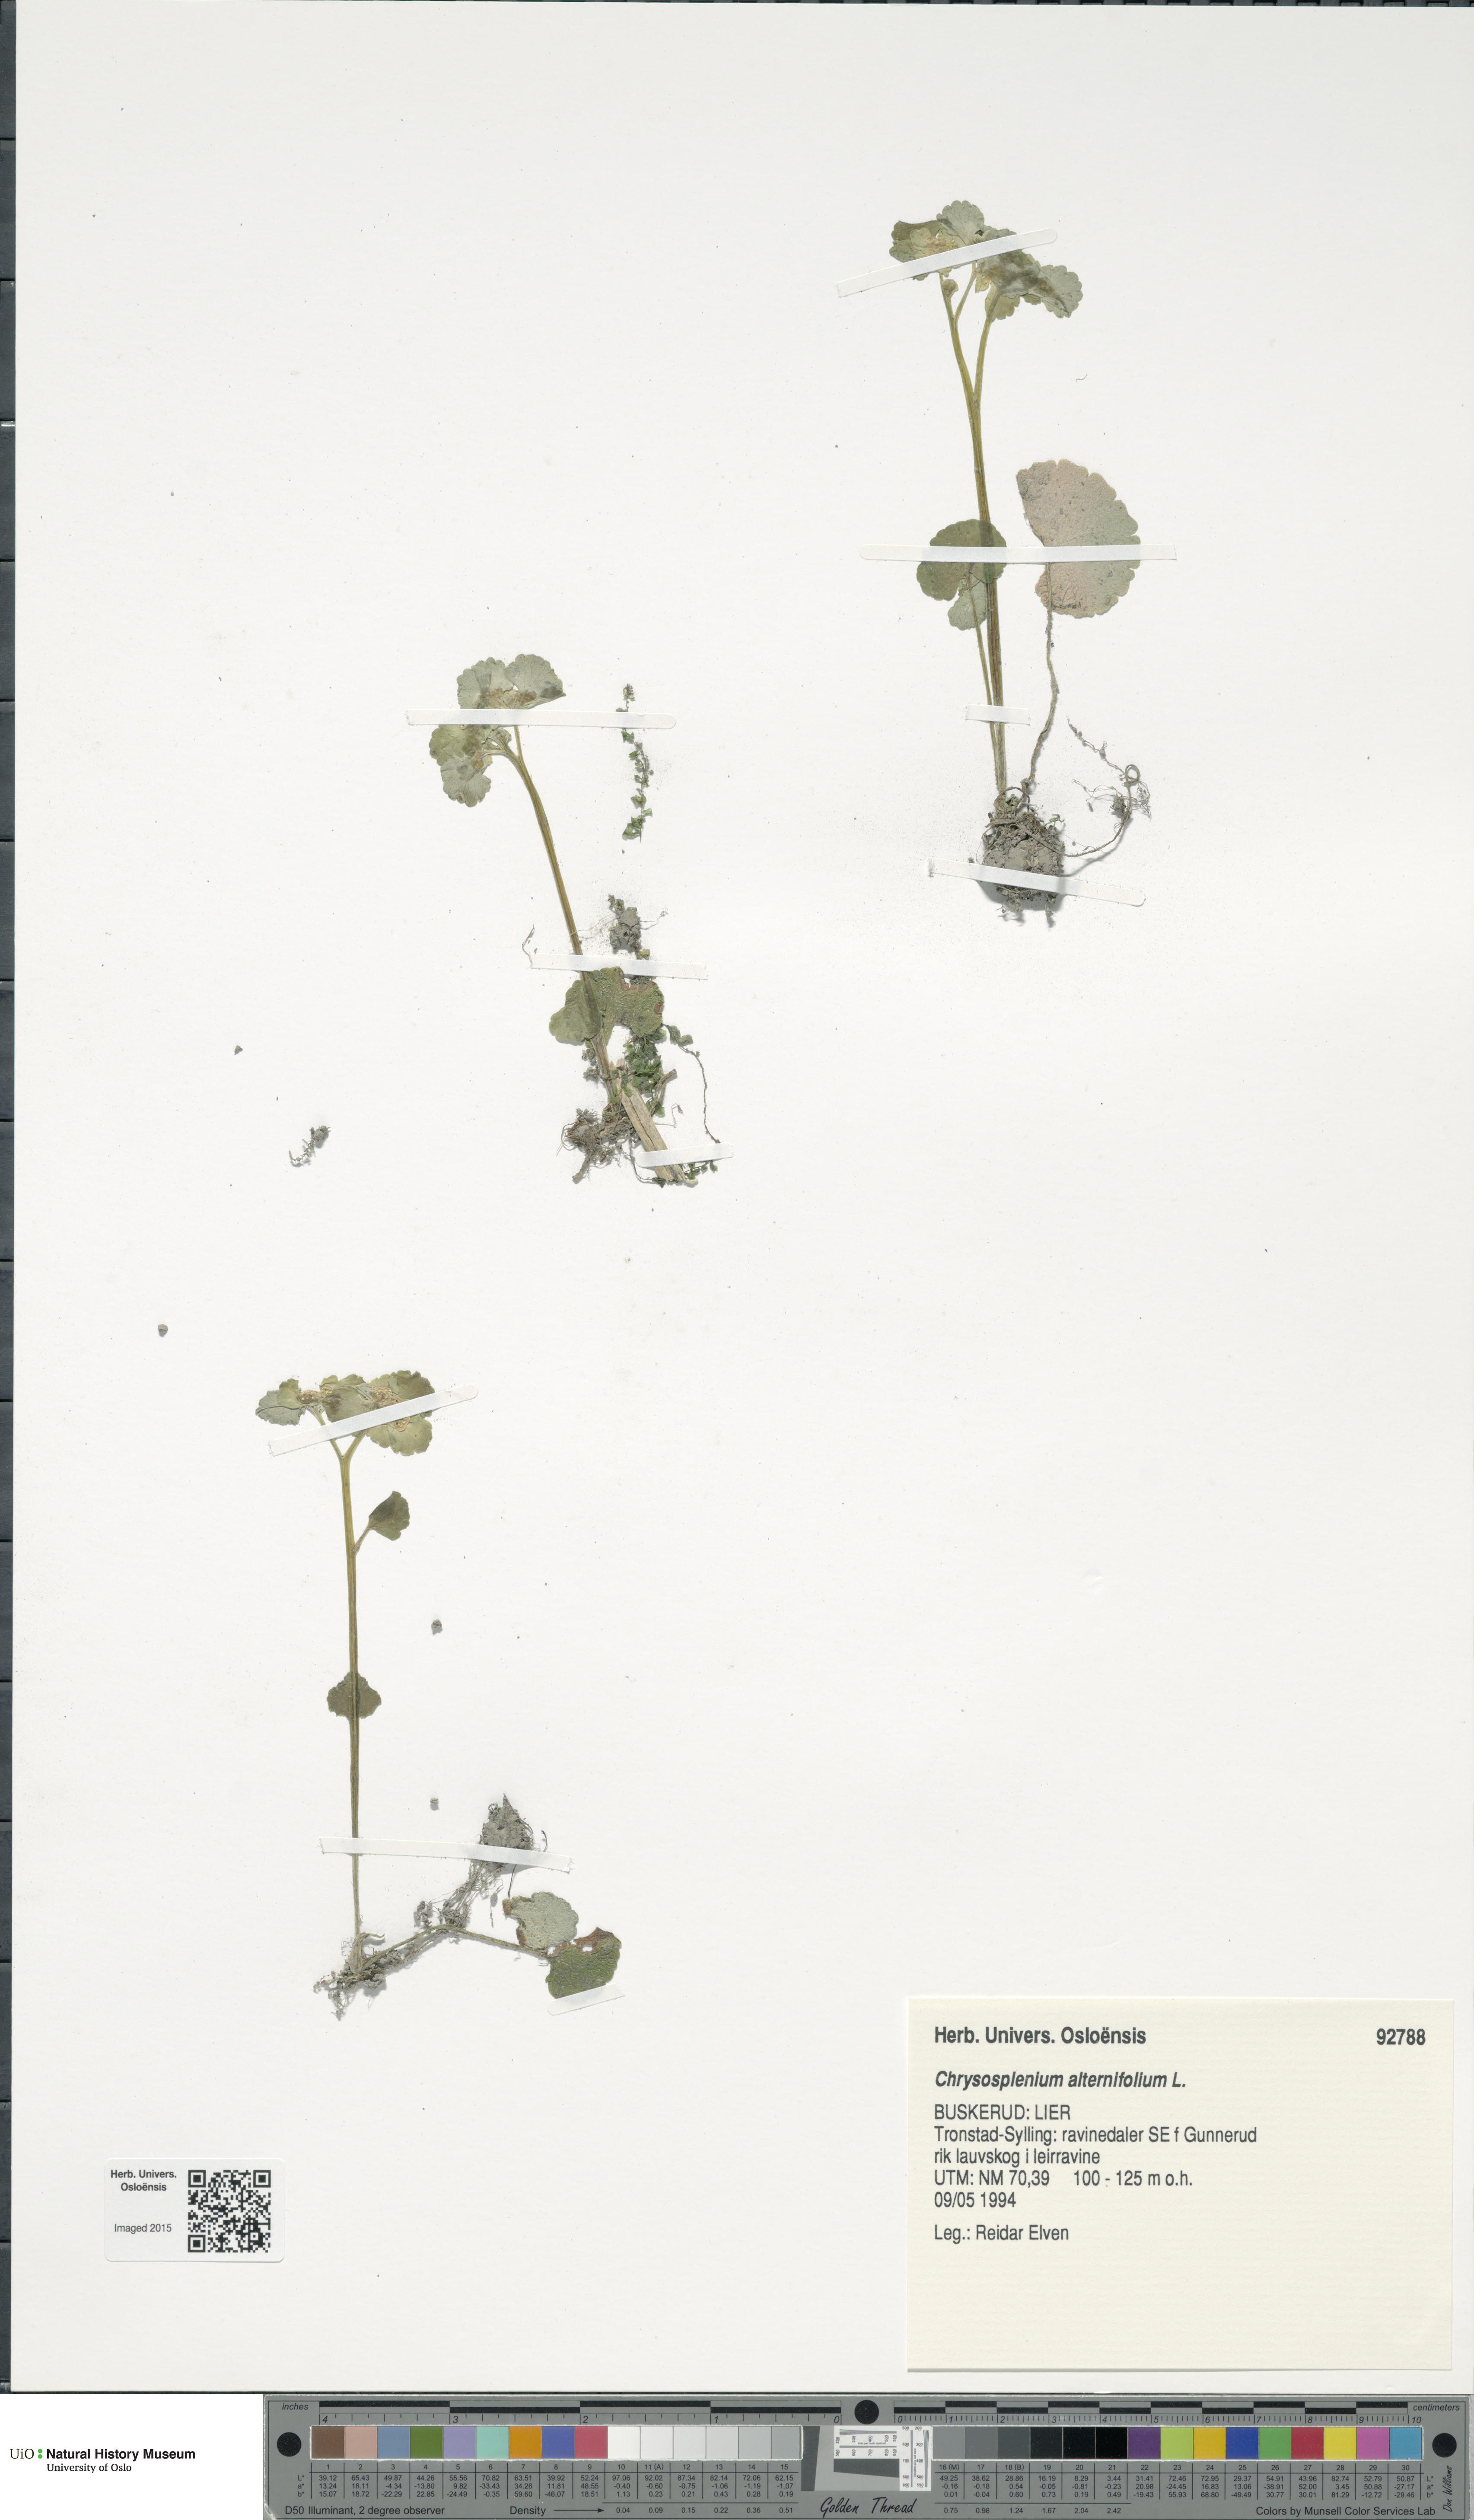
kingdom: Plantae
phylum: Tracheophyta
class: Magnoliopsida
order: Saxifragales
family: Saxifragaceae
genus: Chrysosplenium
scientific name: Chrysosplenium alternifolium
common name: Alternate-leaved golden-saxifrage
